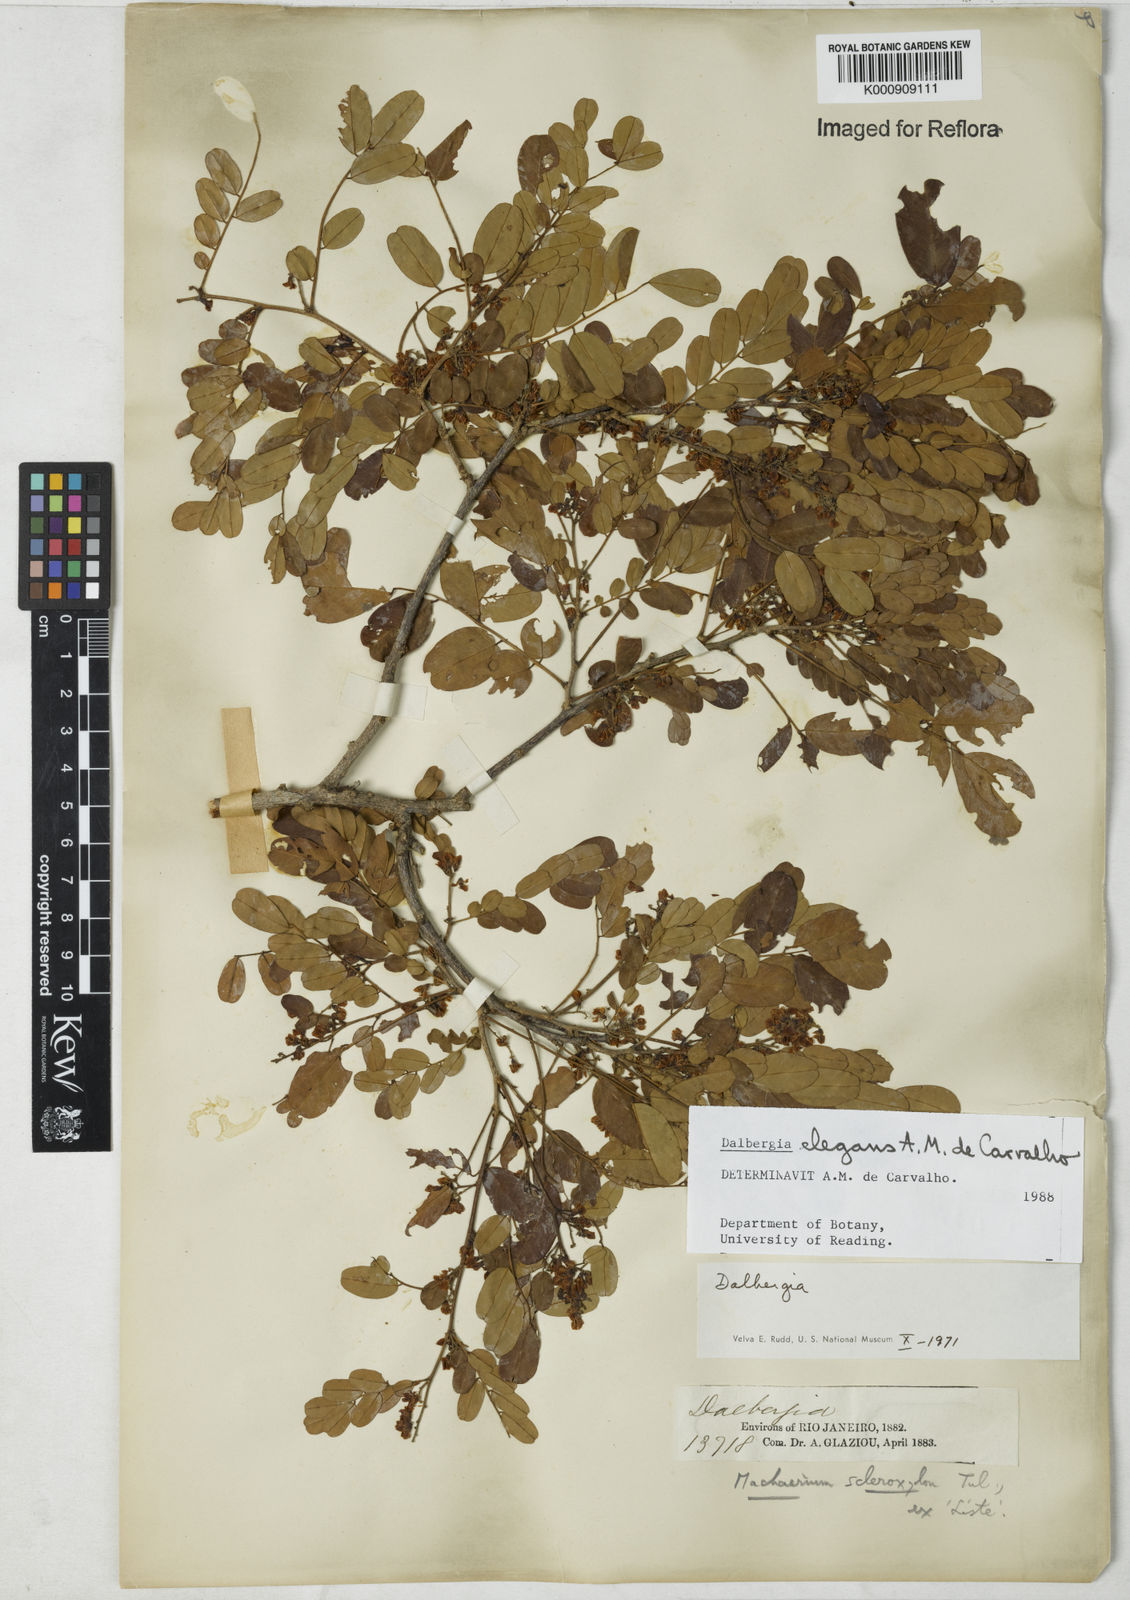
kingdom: Plantae
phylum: Tracheophyta
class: Magnoliopsida
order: Fabales
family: Fabaceae
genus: Dalbergia
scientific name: Dalbergia elegans
